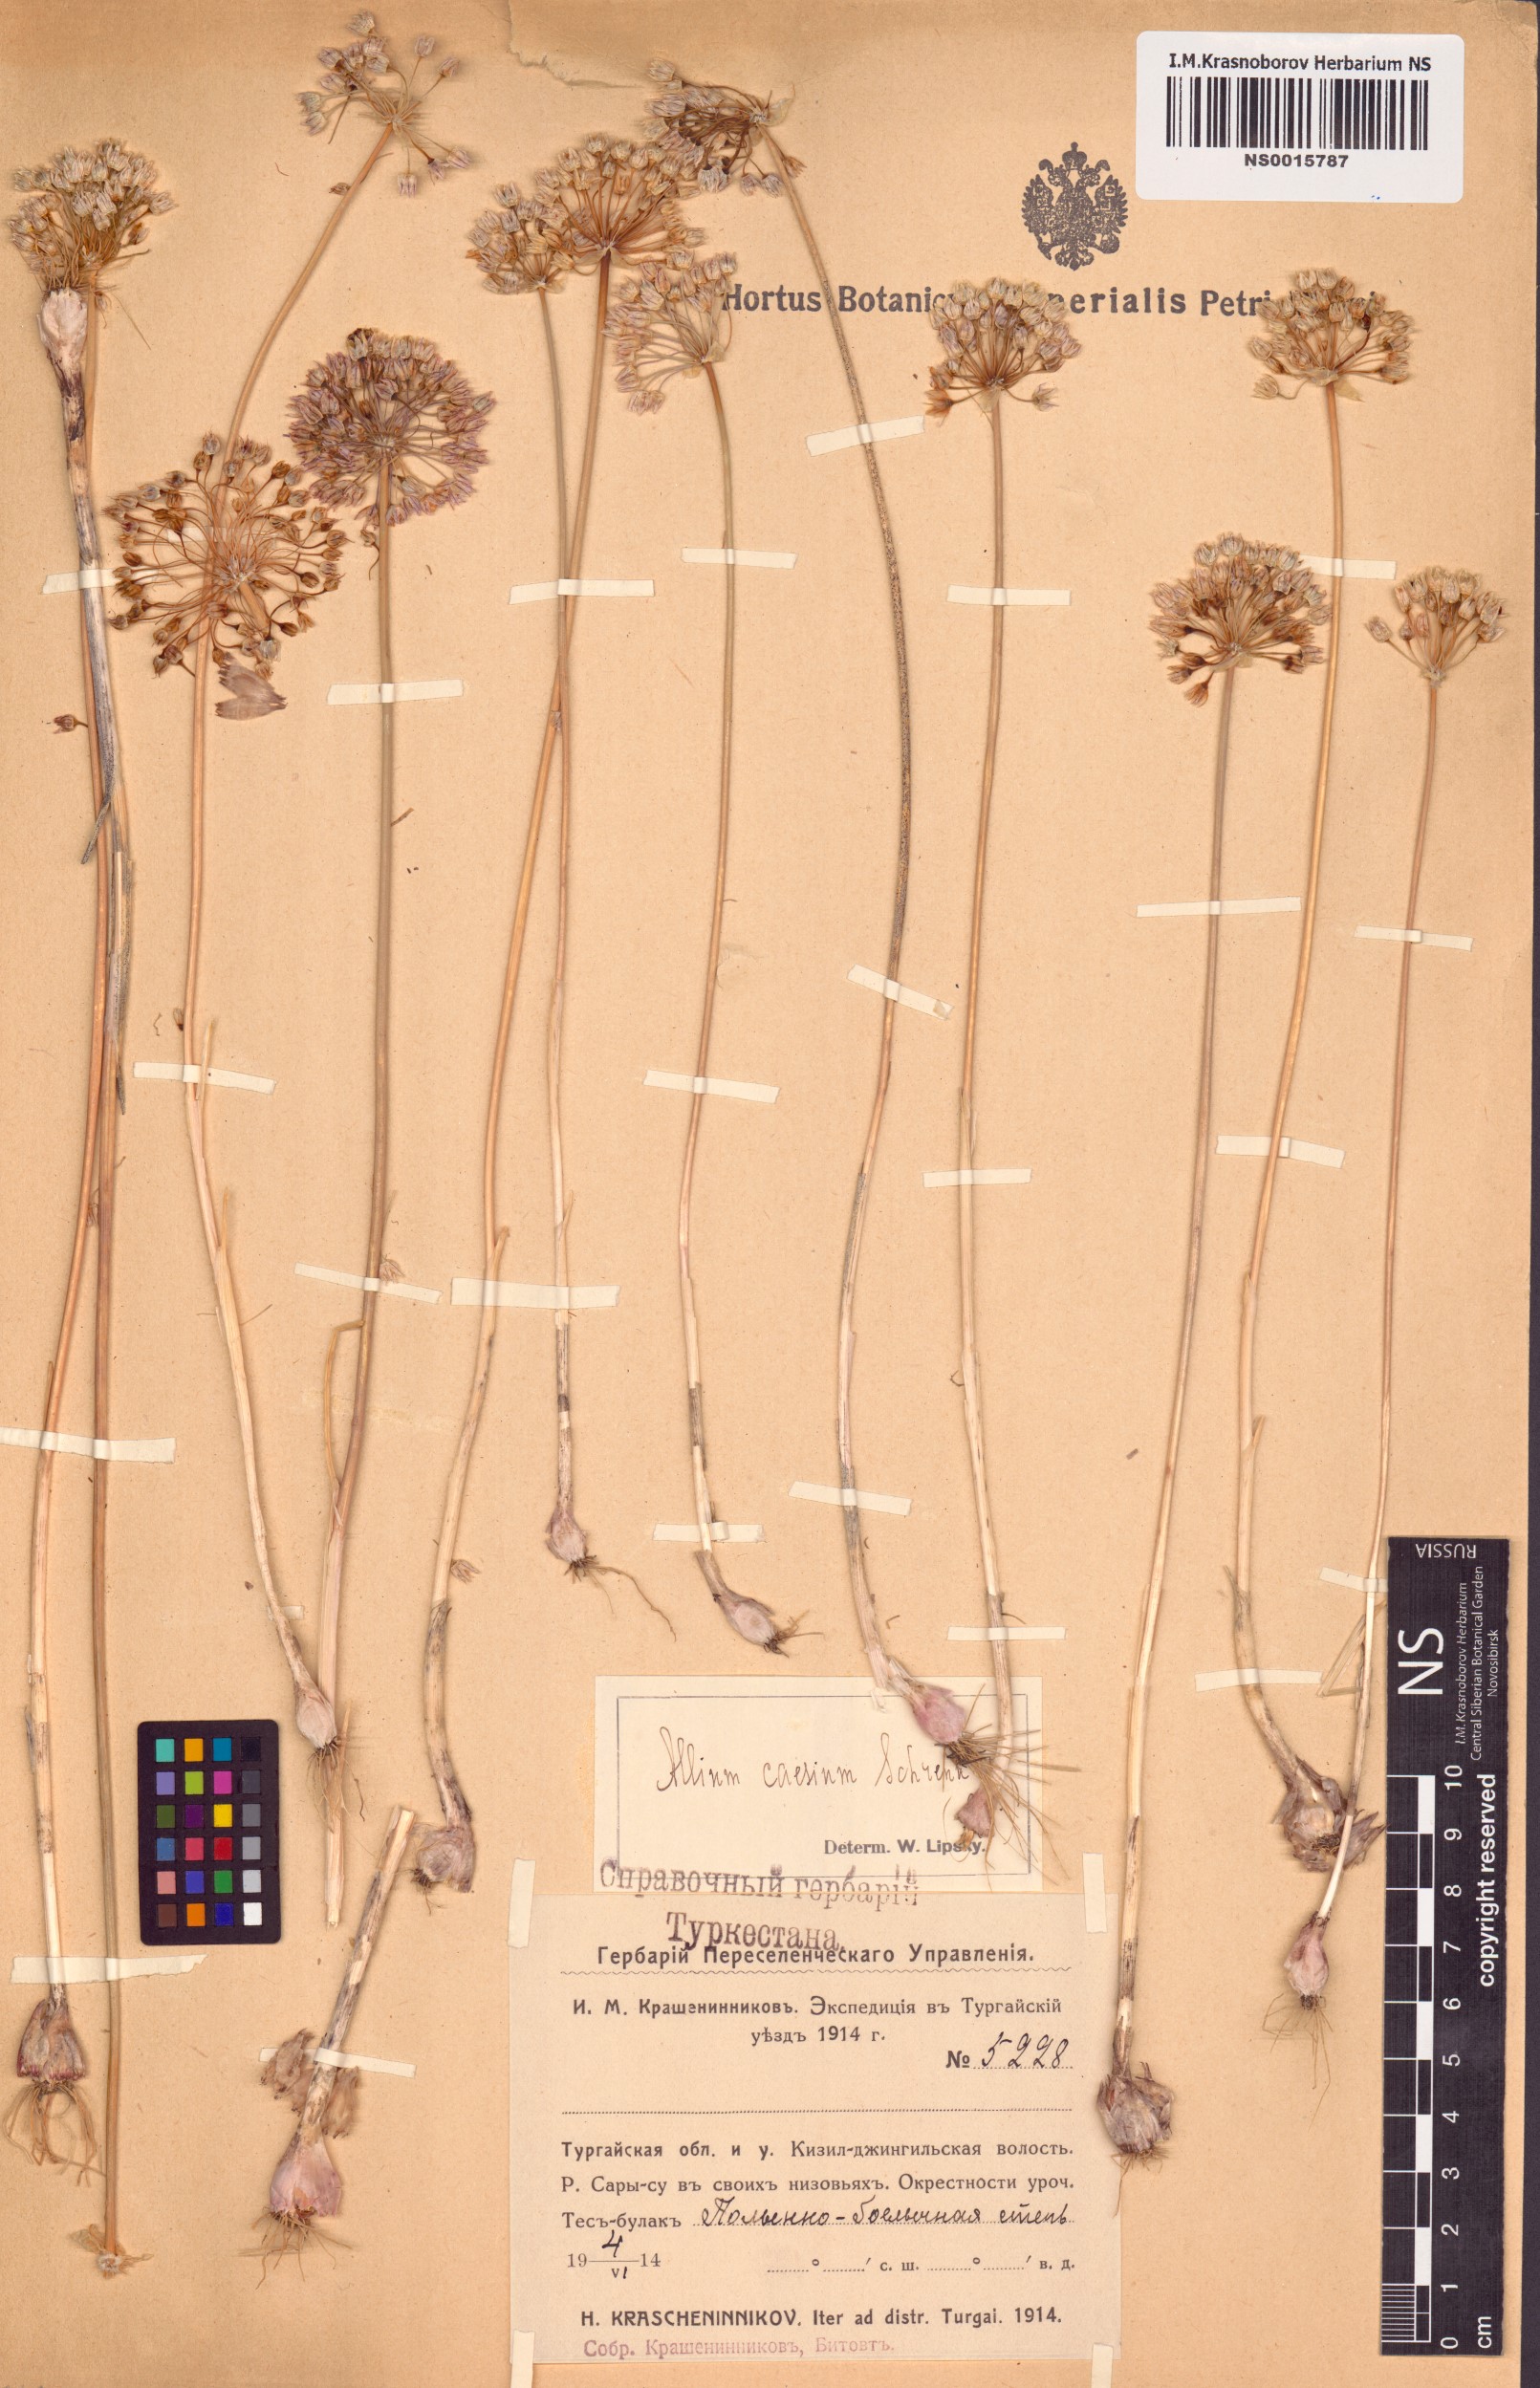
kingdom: Plantae
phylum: Tracheophyta
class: Liliopsida
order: Asparagales
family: Amaryllidaceae
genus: Allium
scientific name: Allium caesium
